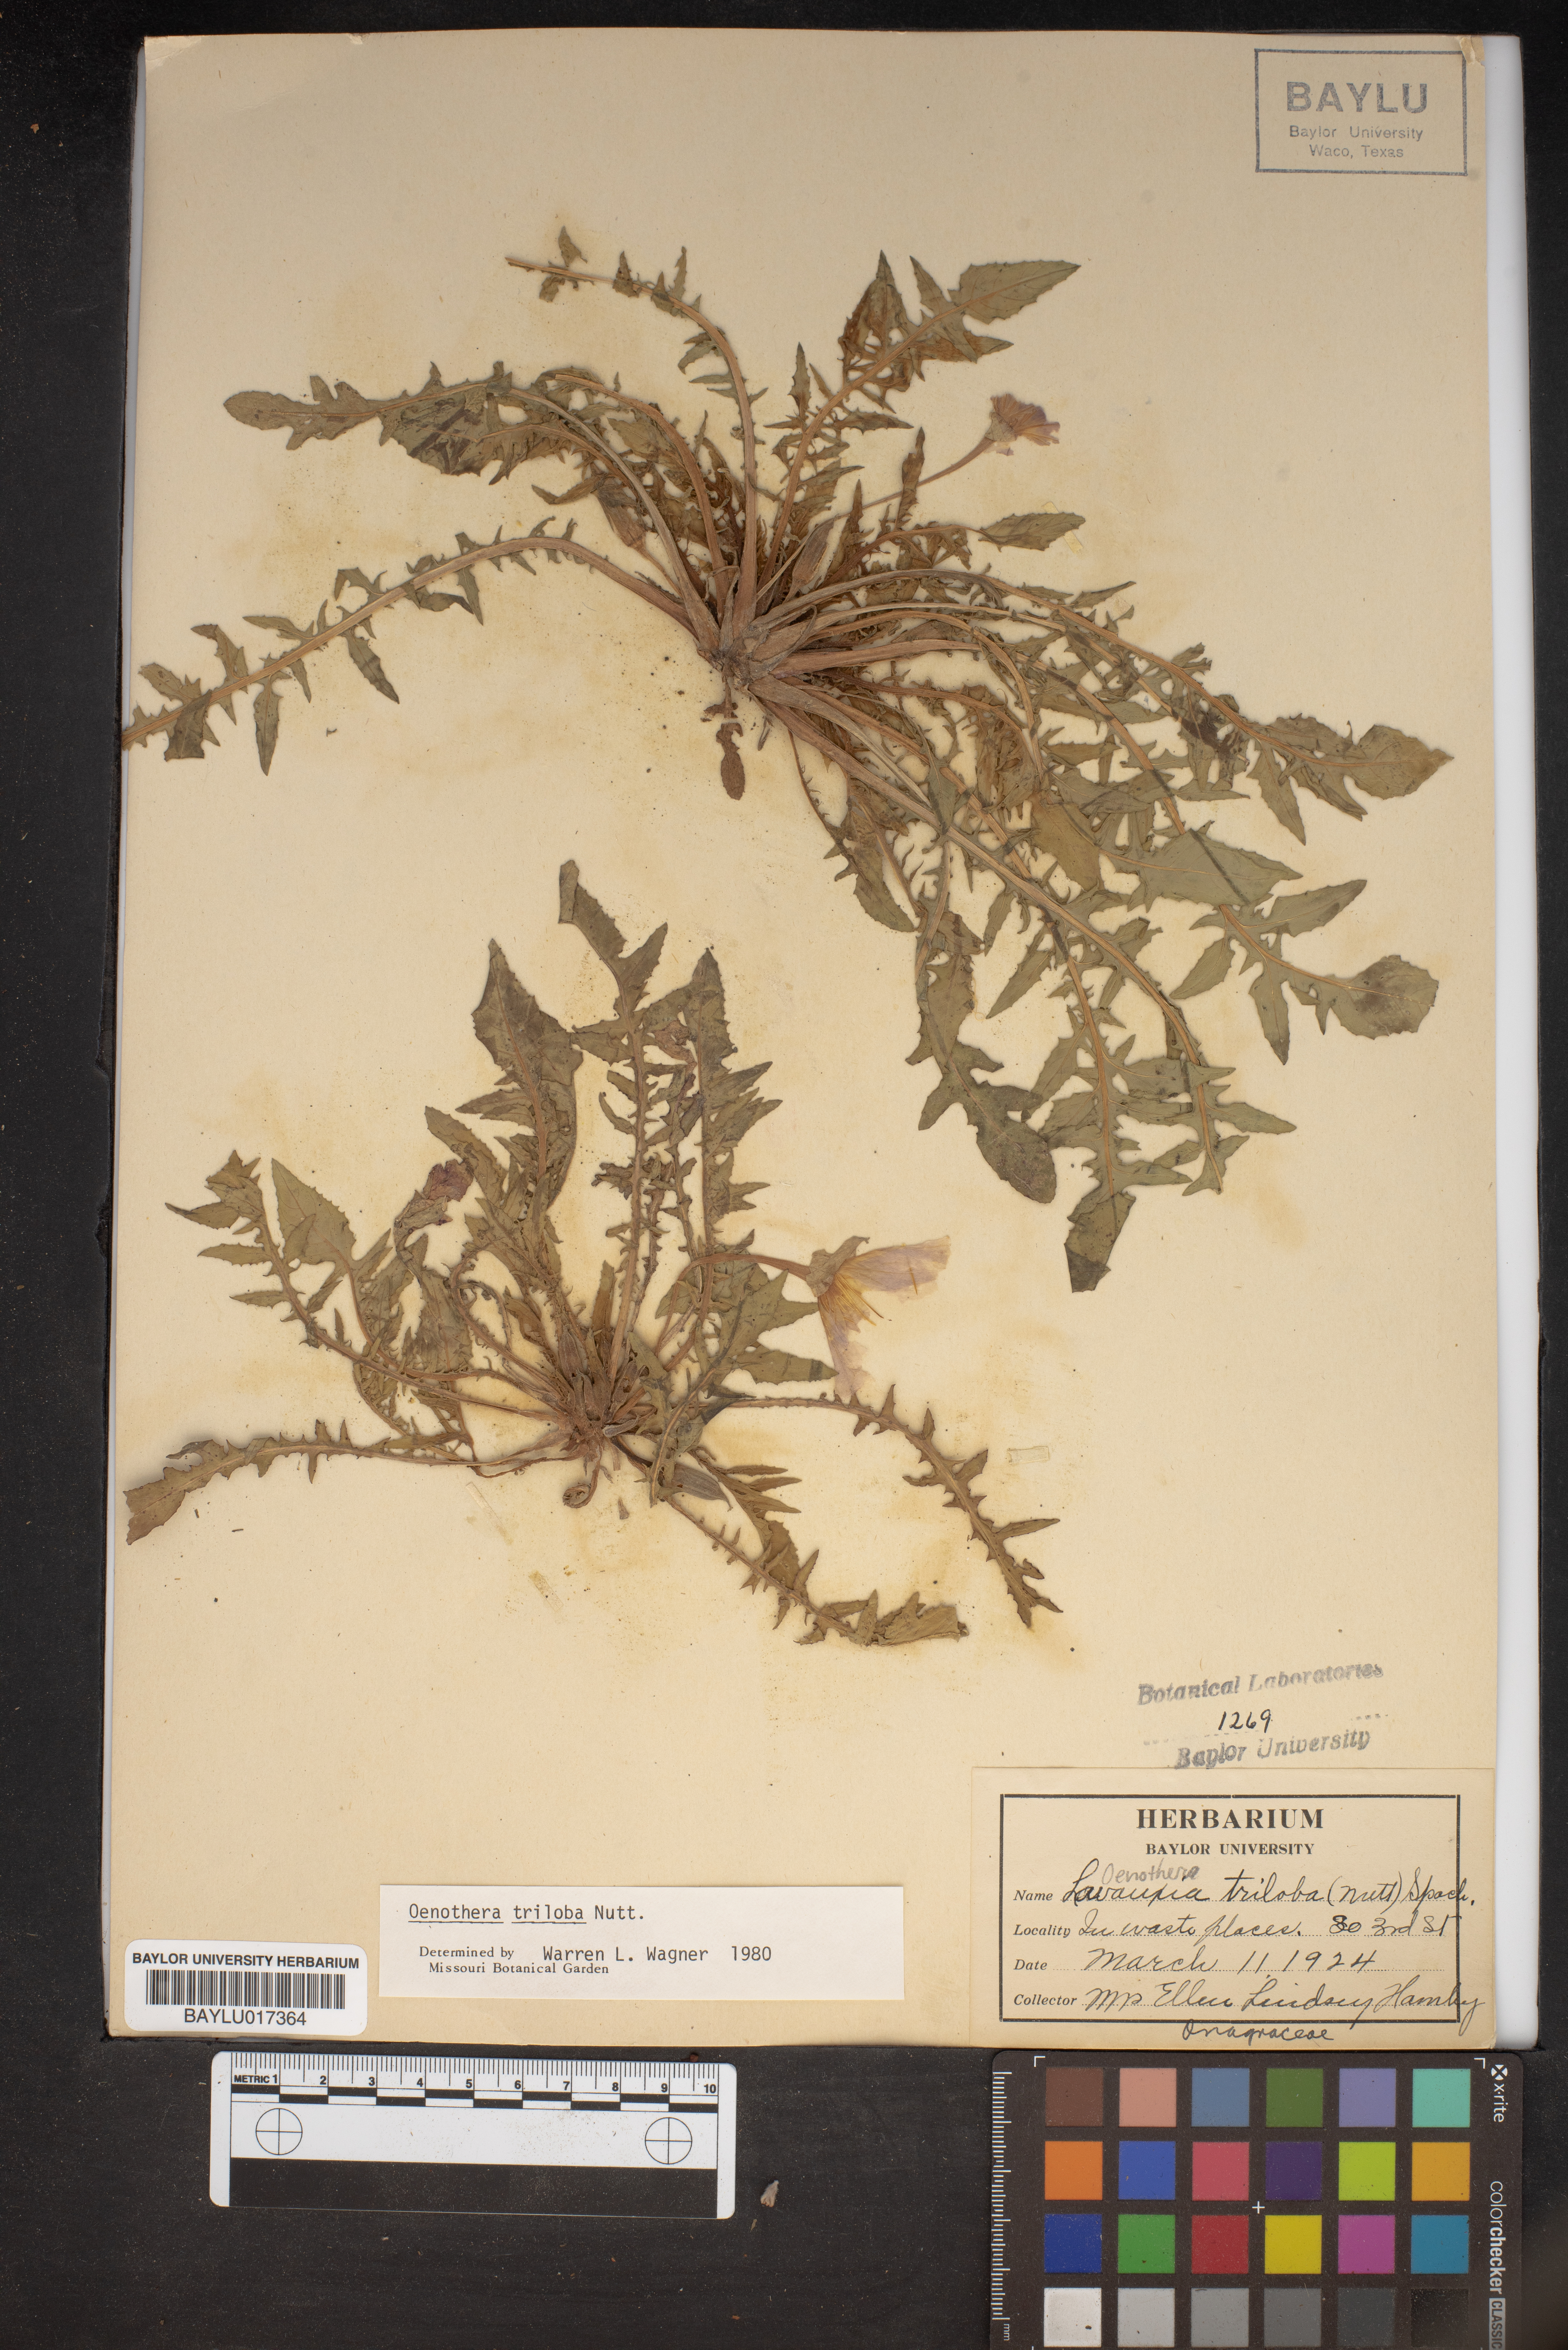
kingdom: Plantae
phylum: Tracheophyta
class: Magnoliopsida
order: Myrtales
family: Onagraceae
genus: Oenothera
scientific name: Oenothera triloba
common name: Sessile evening-primrose
